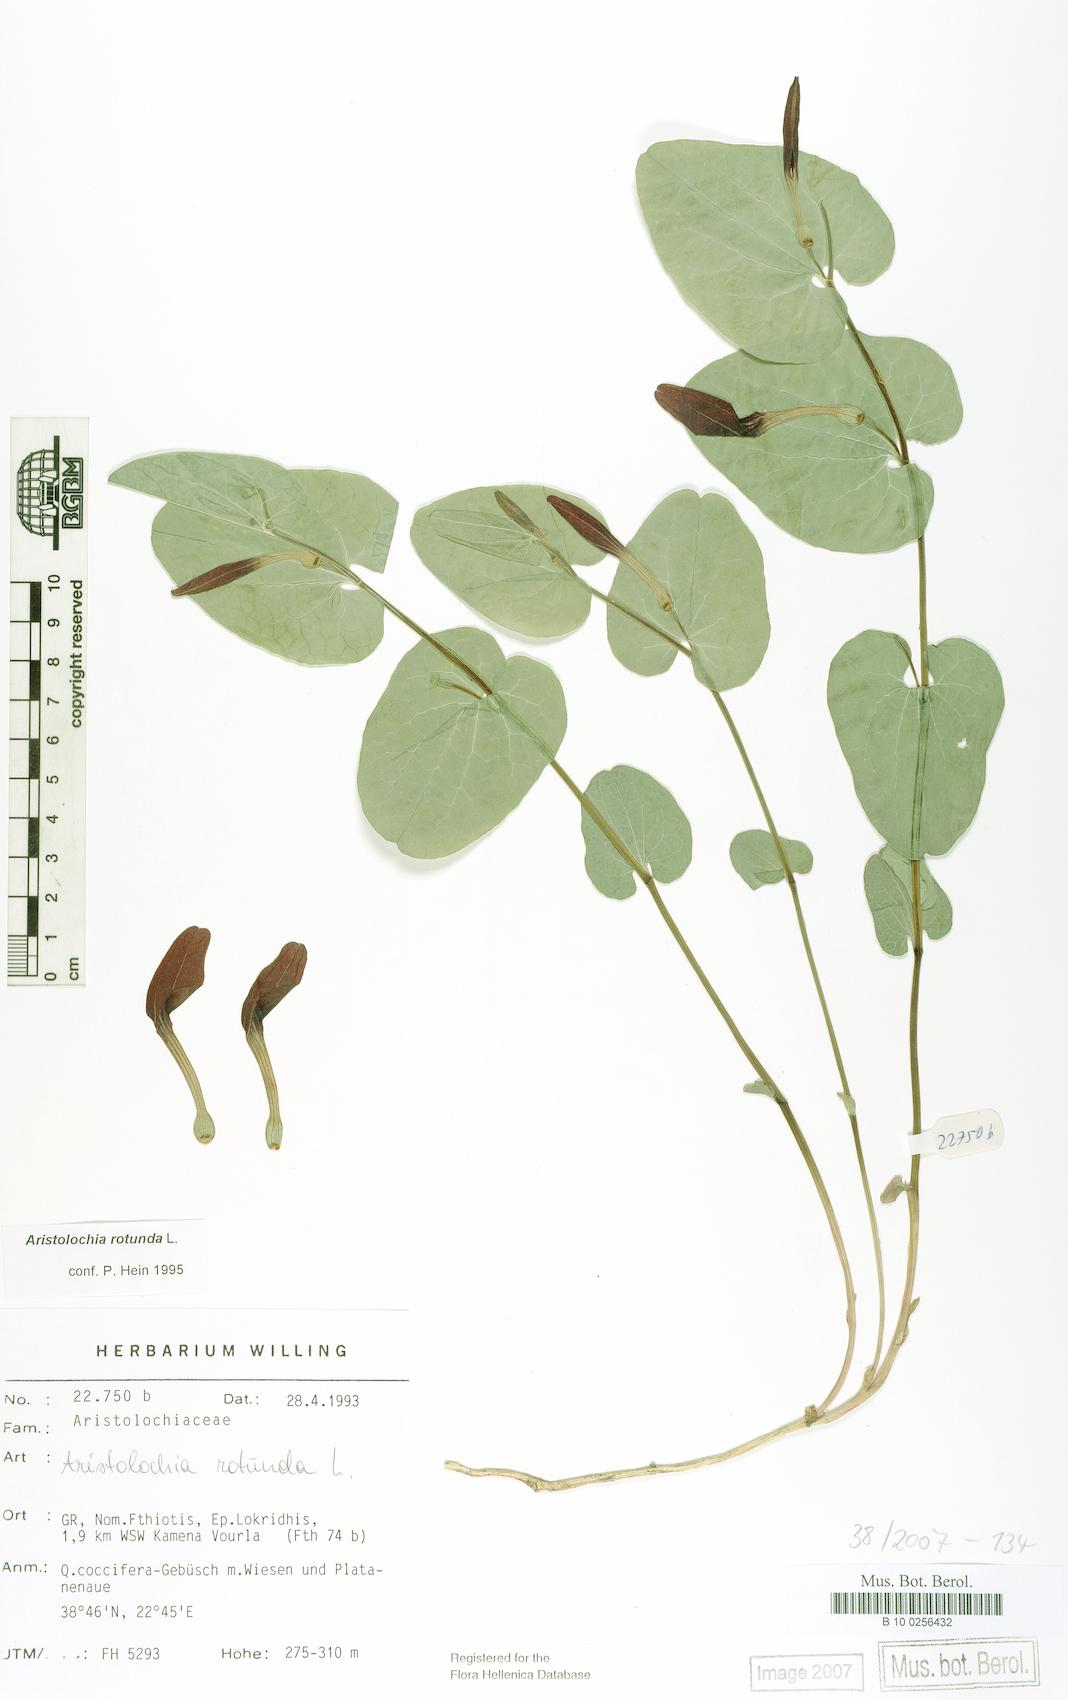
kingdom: Plantae
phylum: Tracheophyta
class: Magnoliopsida
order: Piperales
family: Aristolochiaceae
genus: Aristolochia
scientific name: Aristolochia rotunda
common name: Smearwort
